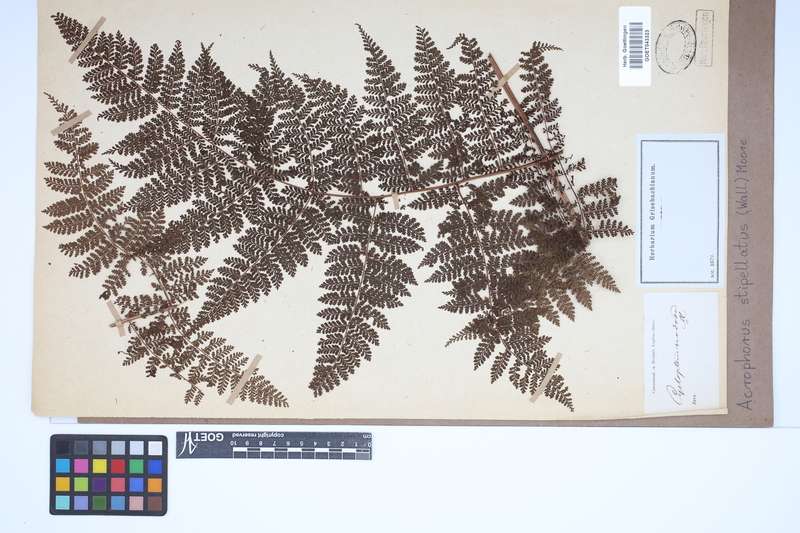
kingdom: Plantae
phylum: Tracheophyta
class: Polypodiopsida
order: Polypodiales
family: Dryopteridaceae
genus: Dryopteris
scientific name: Dryopteris nodosa
